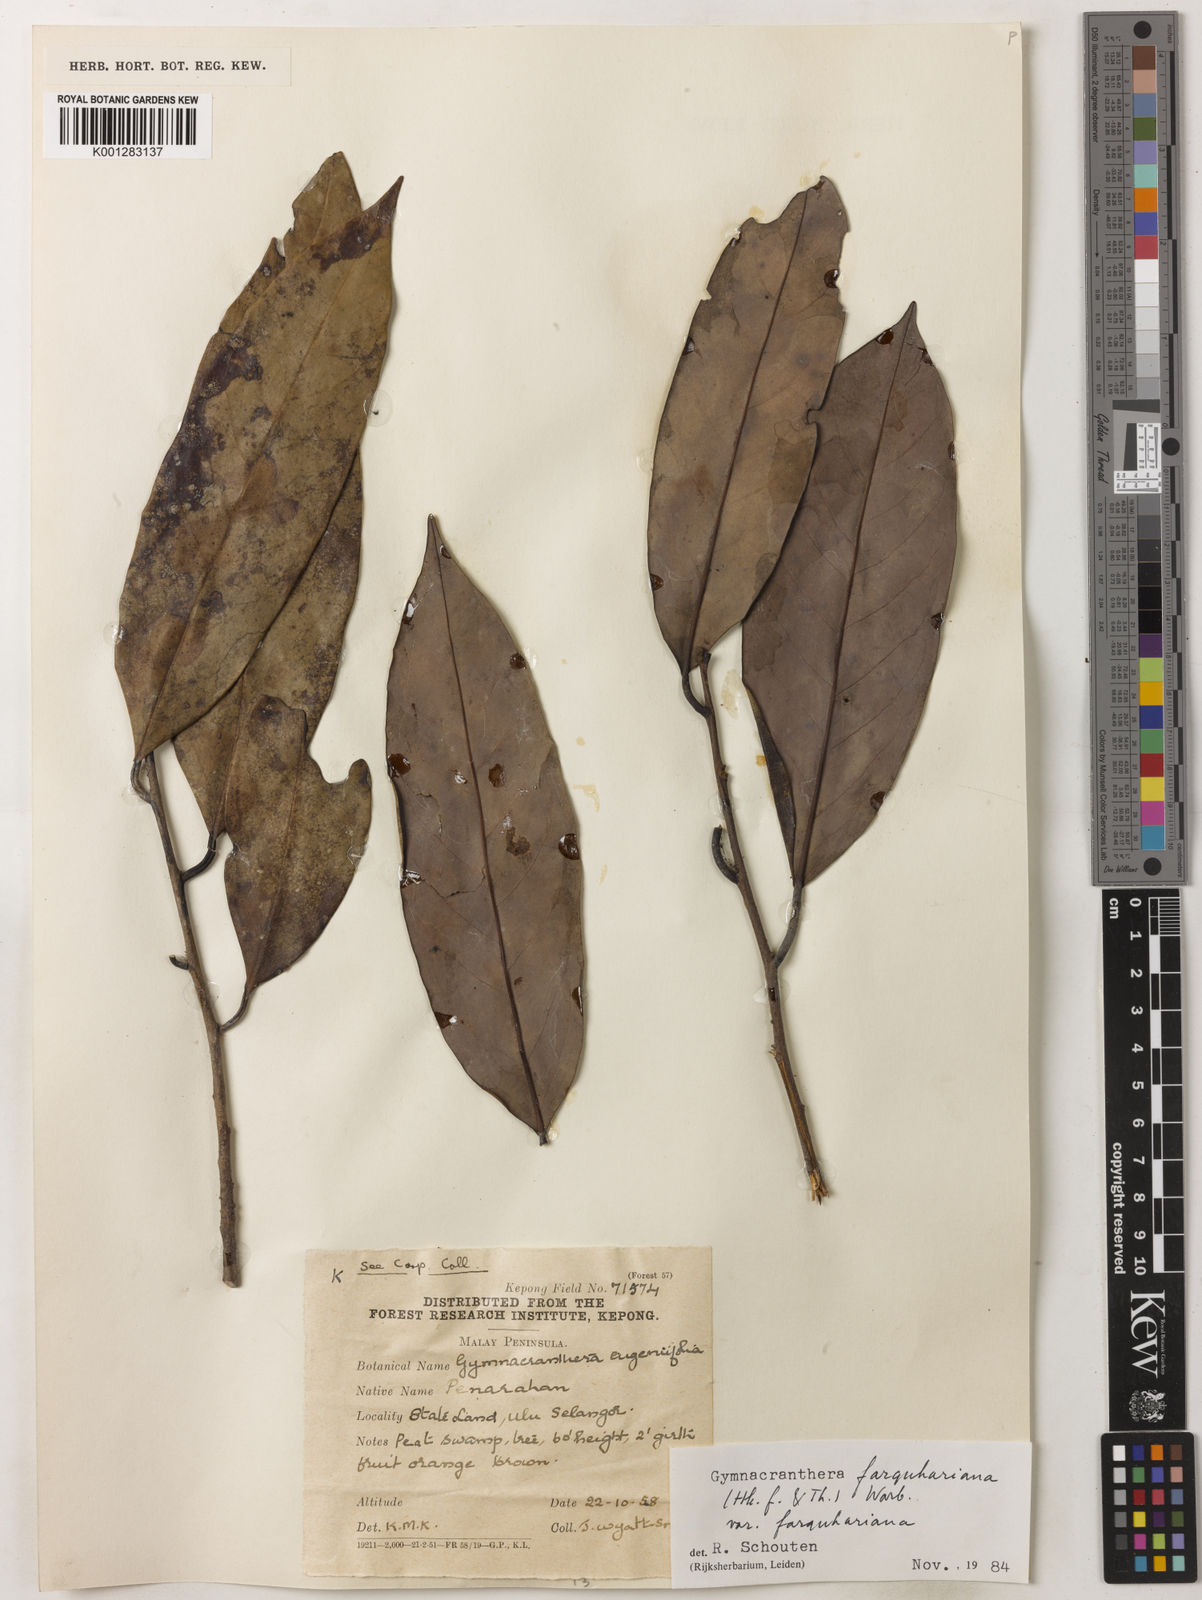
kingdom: Plantae
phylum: Tracheophyta
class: Magnoliopsida
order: Magnoliales
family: Myristicaceae
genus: Gymnacranthera
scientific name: Gymnacranthera farquhariana
